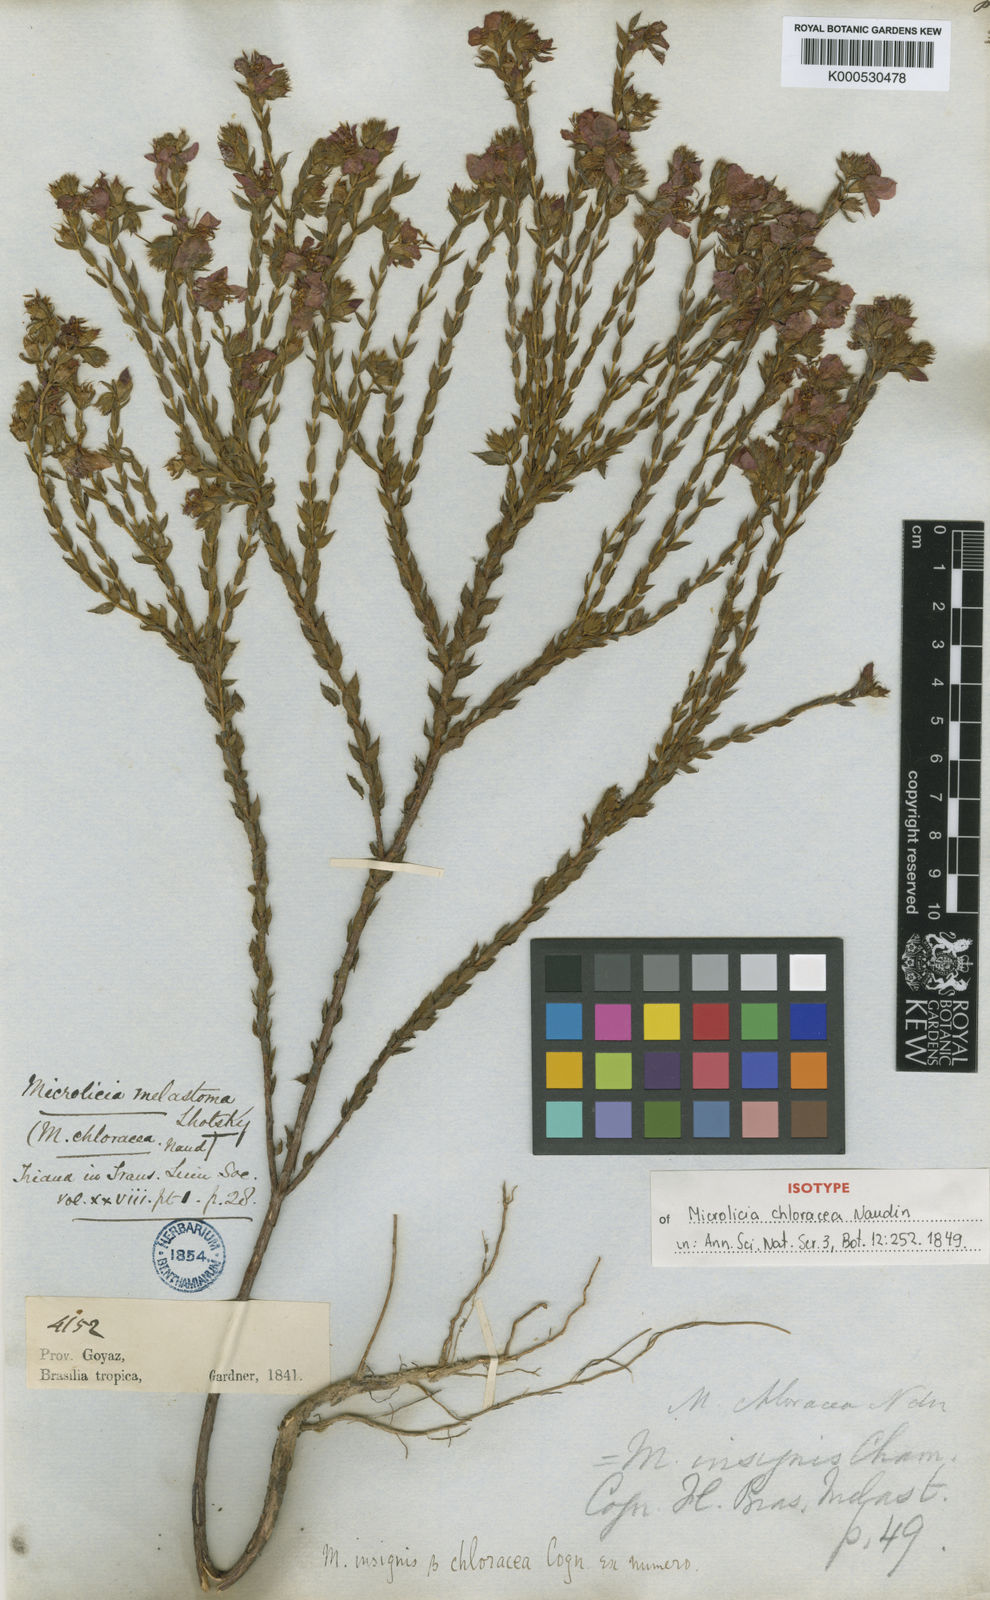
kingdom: Plantae
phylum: Tracheophyta
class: Magnoliopsida
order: Myrtales
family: Melastomataceae
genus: Microlicia
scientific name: Microlicia
